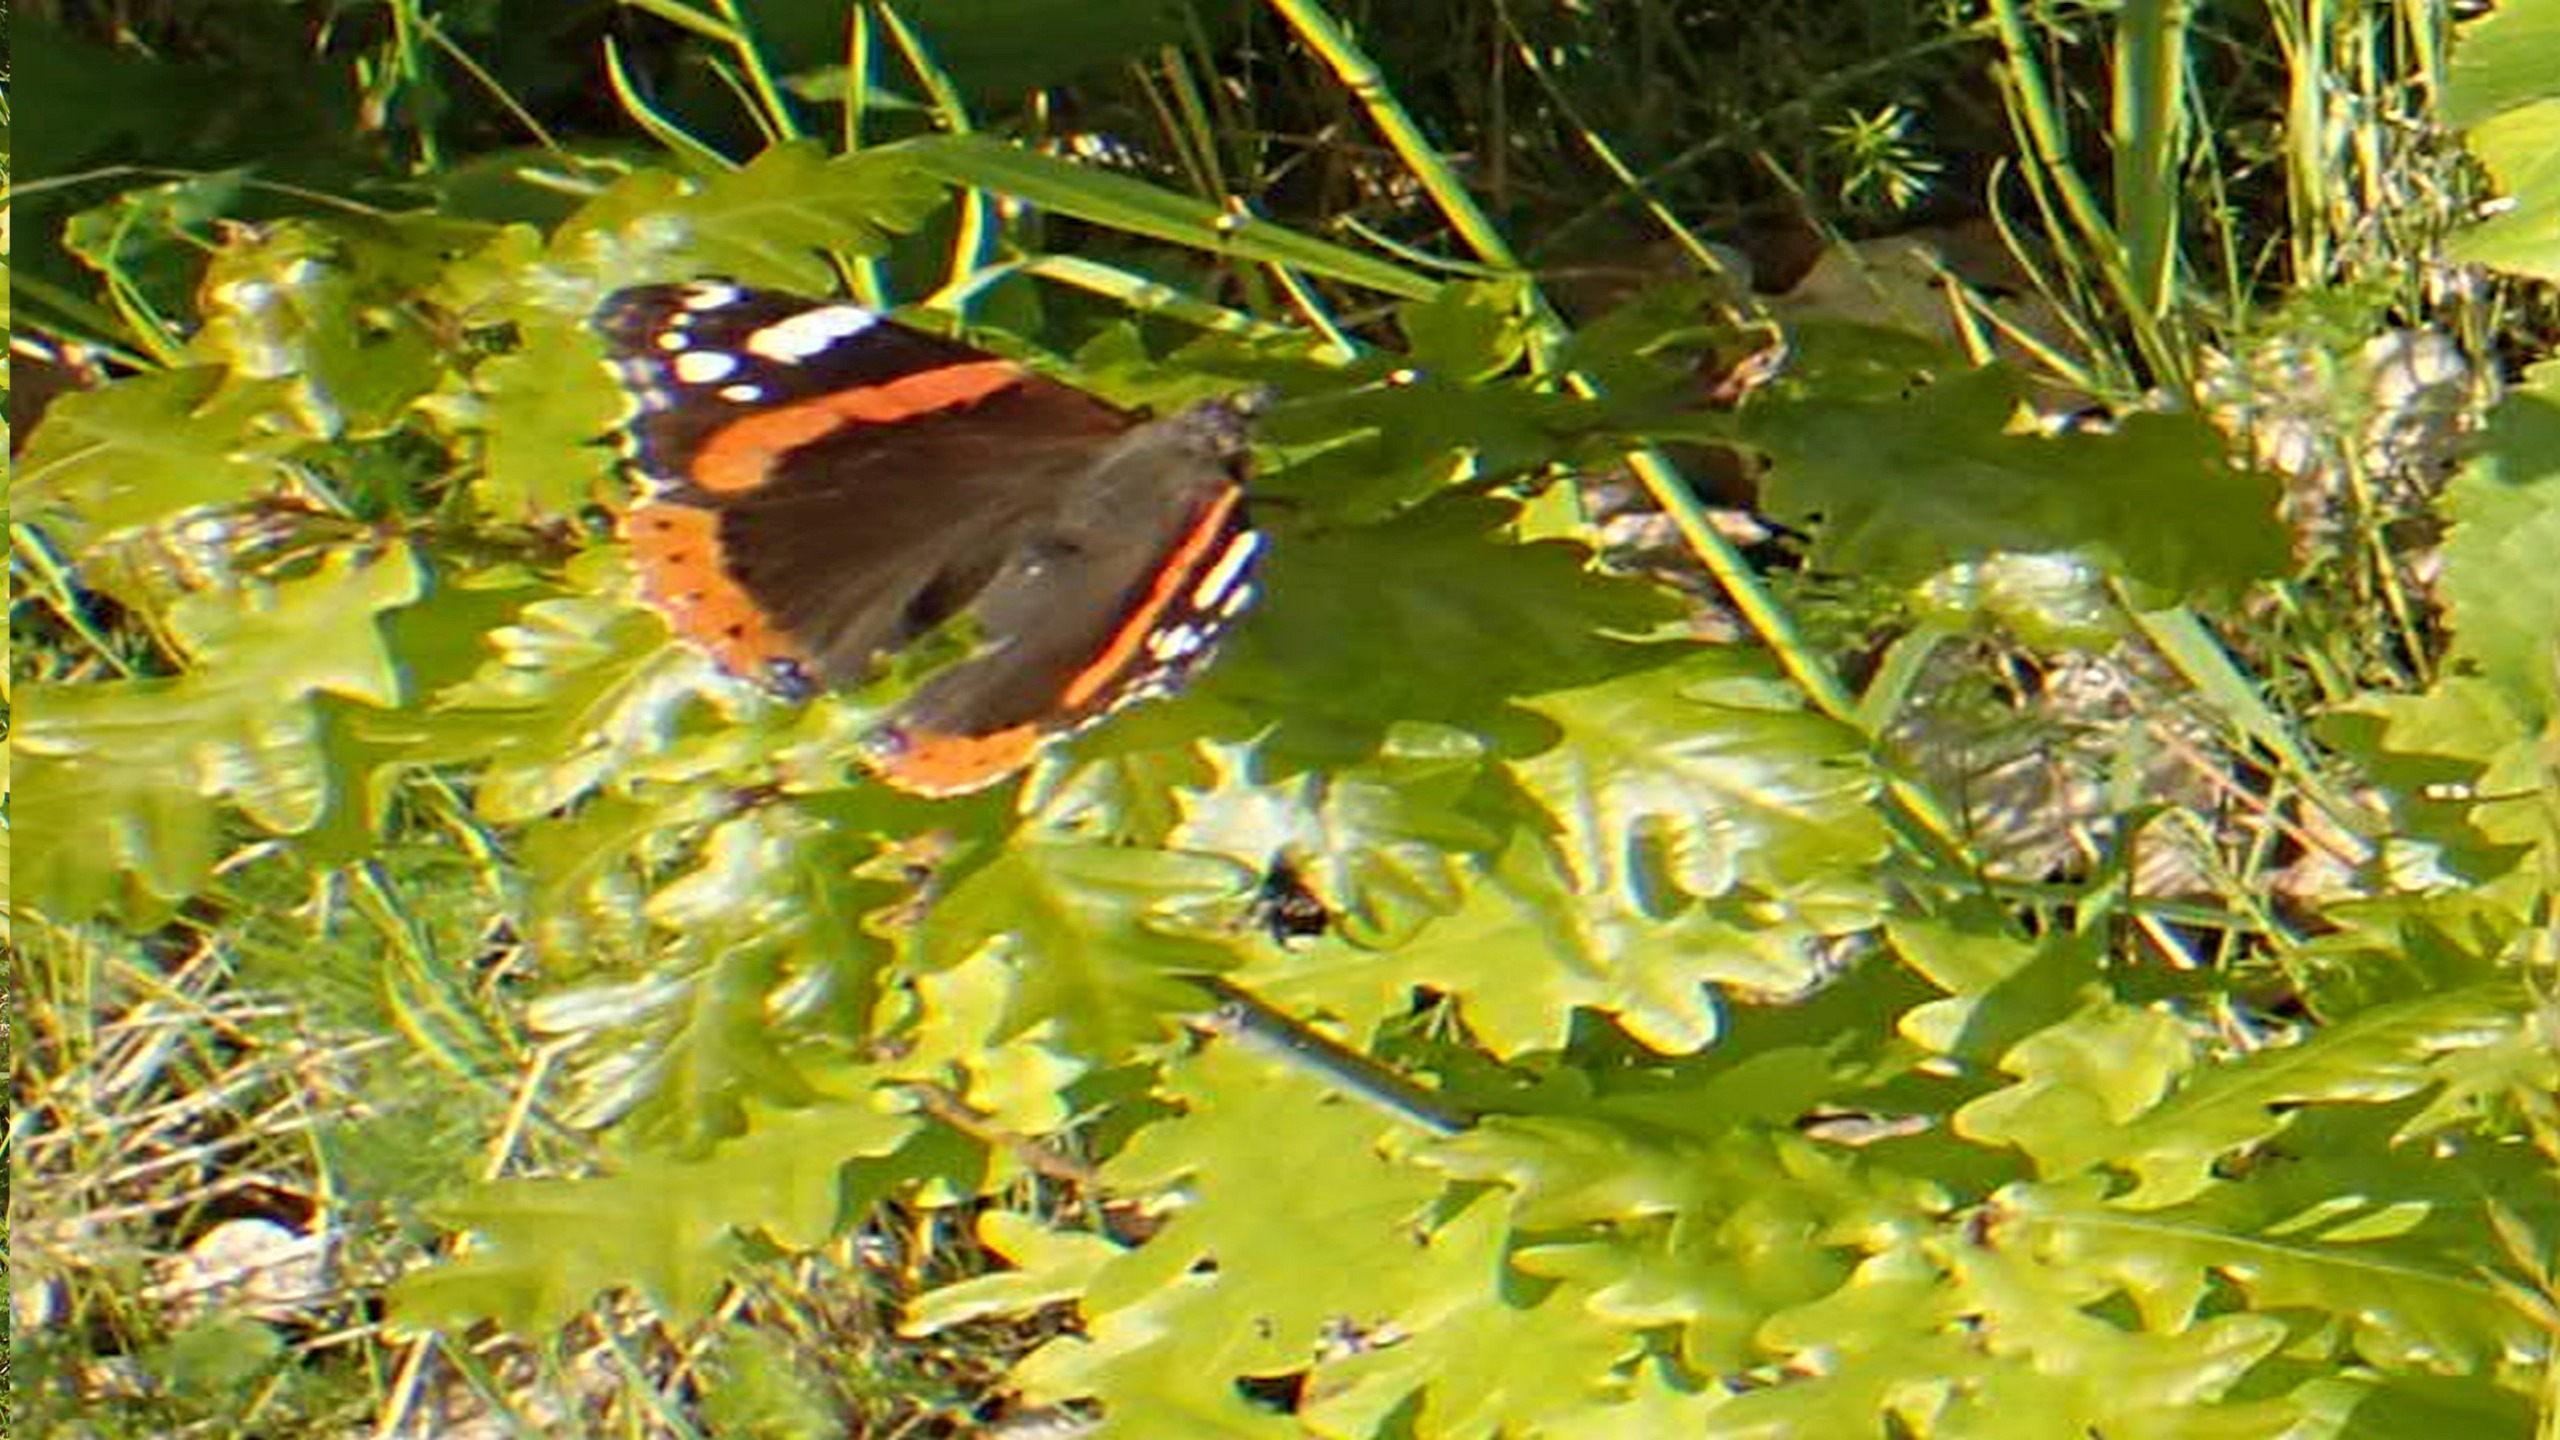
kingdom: Animalia
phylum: Arthropoda
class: Insecta
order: Lepidoptera
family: Nymphalidae
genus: Vanessa
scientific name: Vanessa atalanta
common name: Admiral
